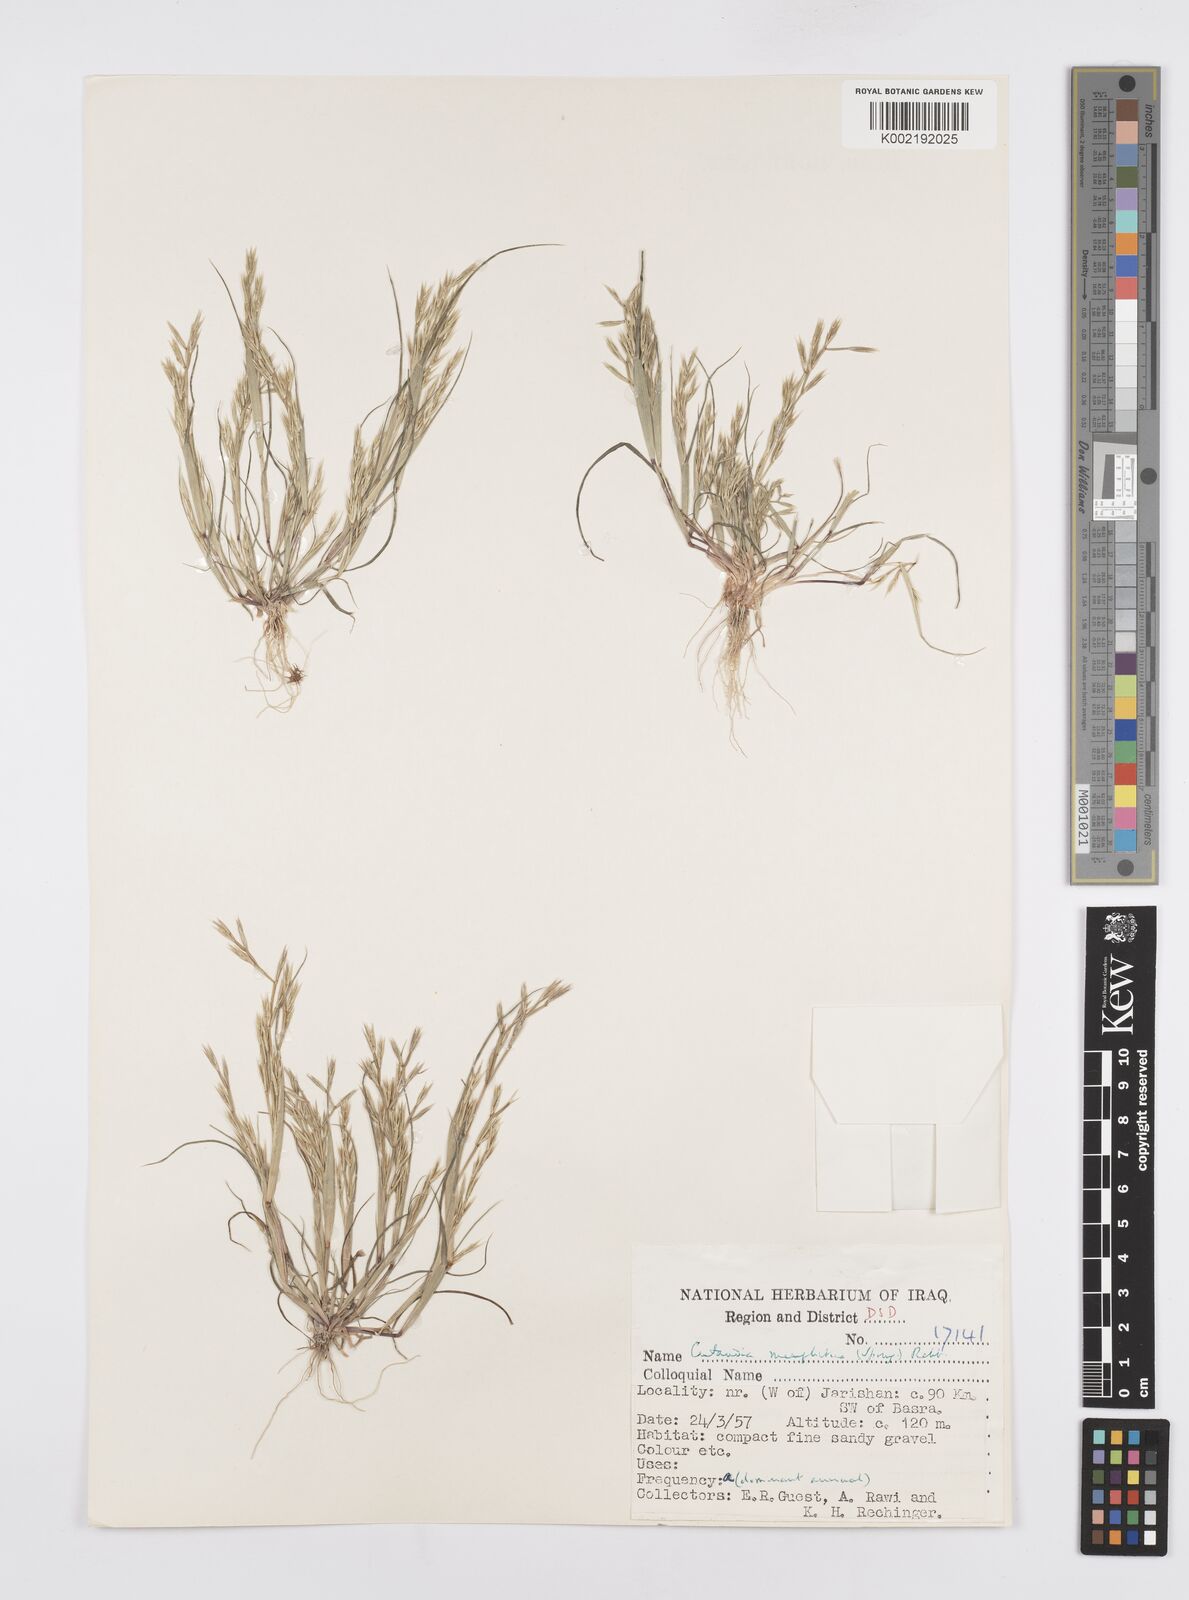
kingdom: Plantae
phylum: Tracheophyta
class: Liliopsida
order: Poales
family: Poaceae
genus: Cutandia
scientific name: Cutandia memphitica
